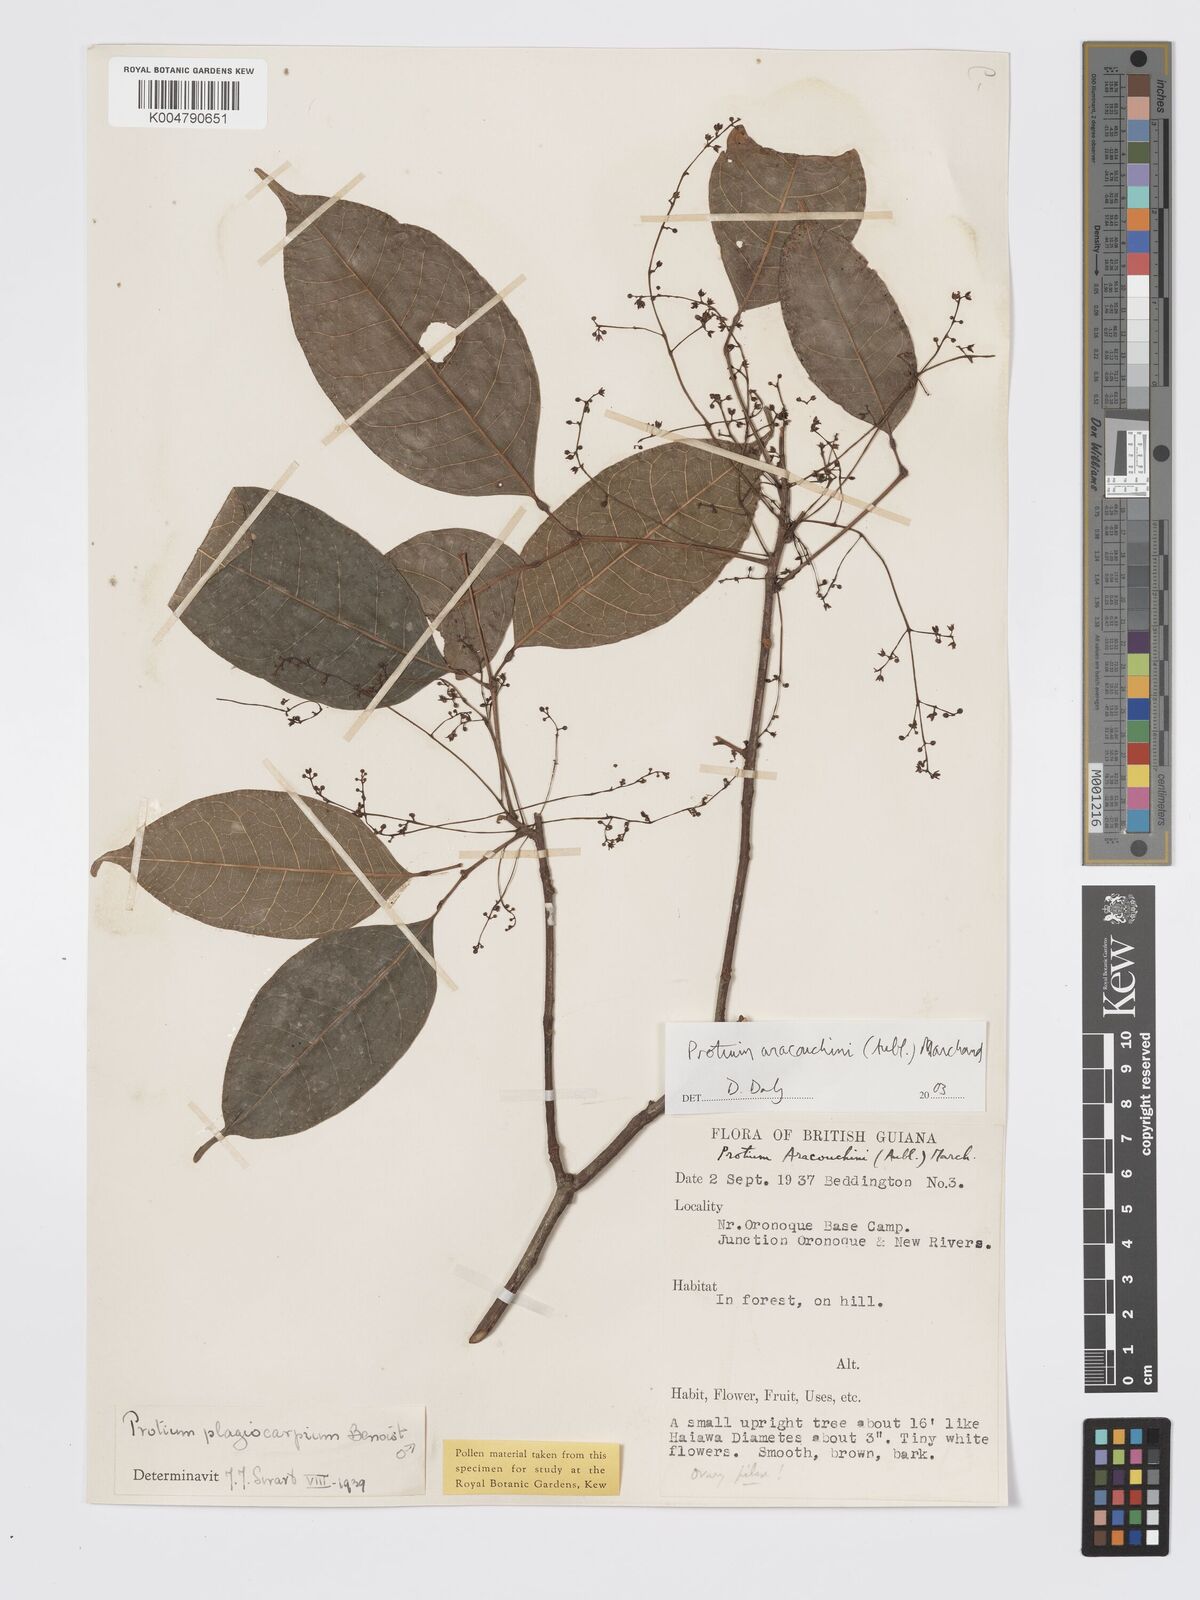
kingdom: Plantae
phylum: Tracheophyta
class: Magnoliopsida
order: Sapindales
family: Burseraceae
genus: Protium
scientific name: Protium aracouchini
